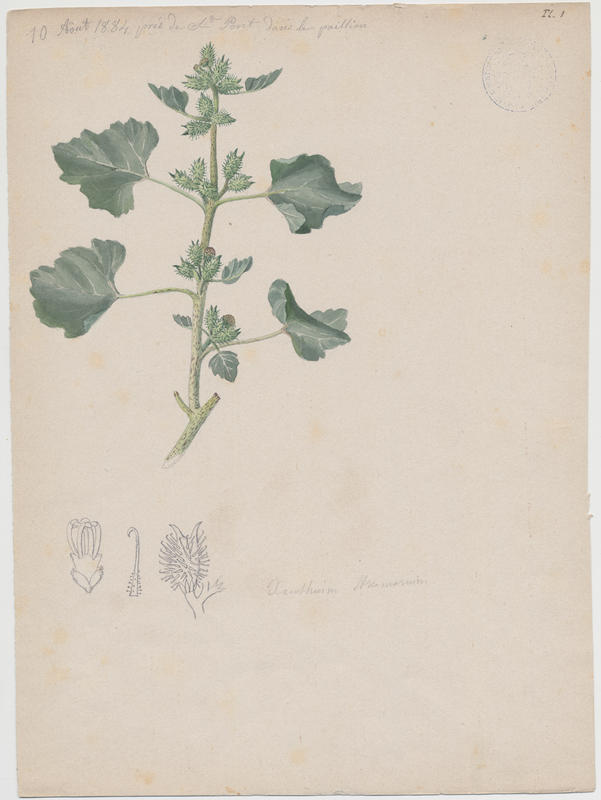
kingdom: Plantae
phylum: Tracheophyta
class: Magnoliopsida
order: Asterales
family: Asteraceae
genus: Xanthium
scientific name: Xanthium strumarium
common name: Rough cocklebur
